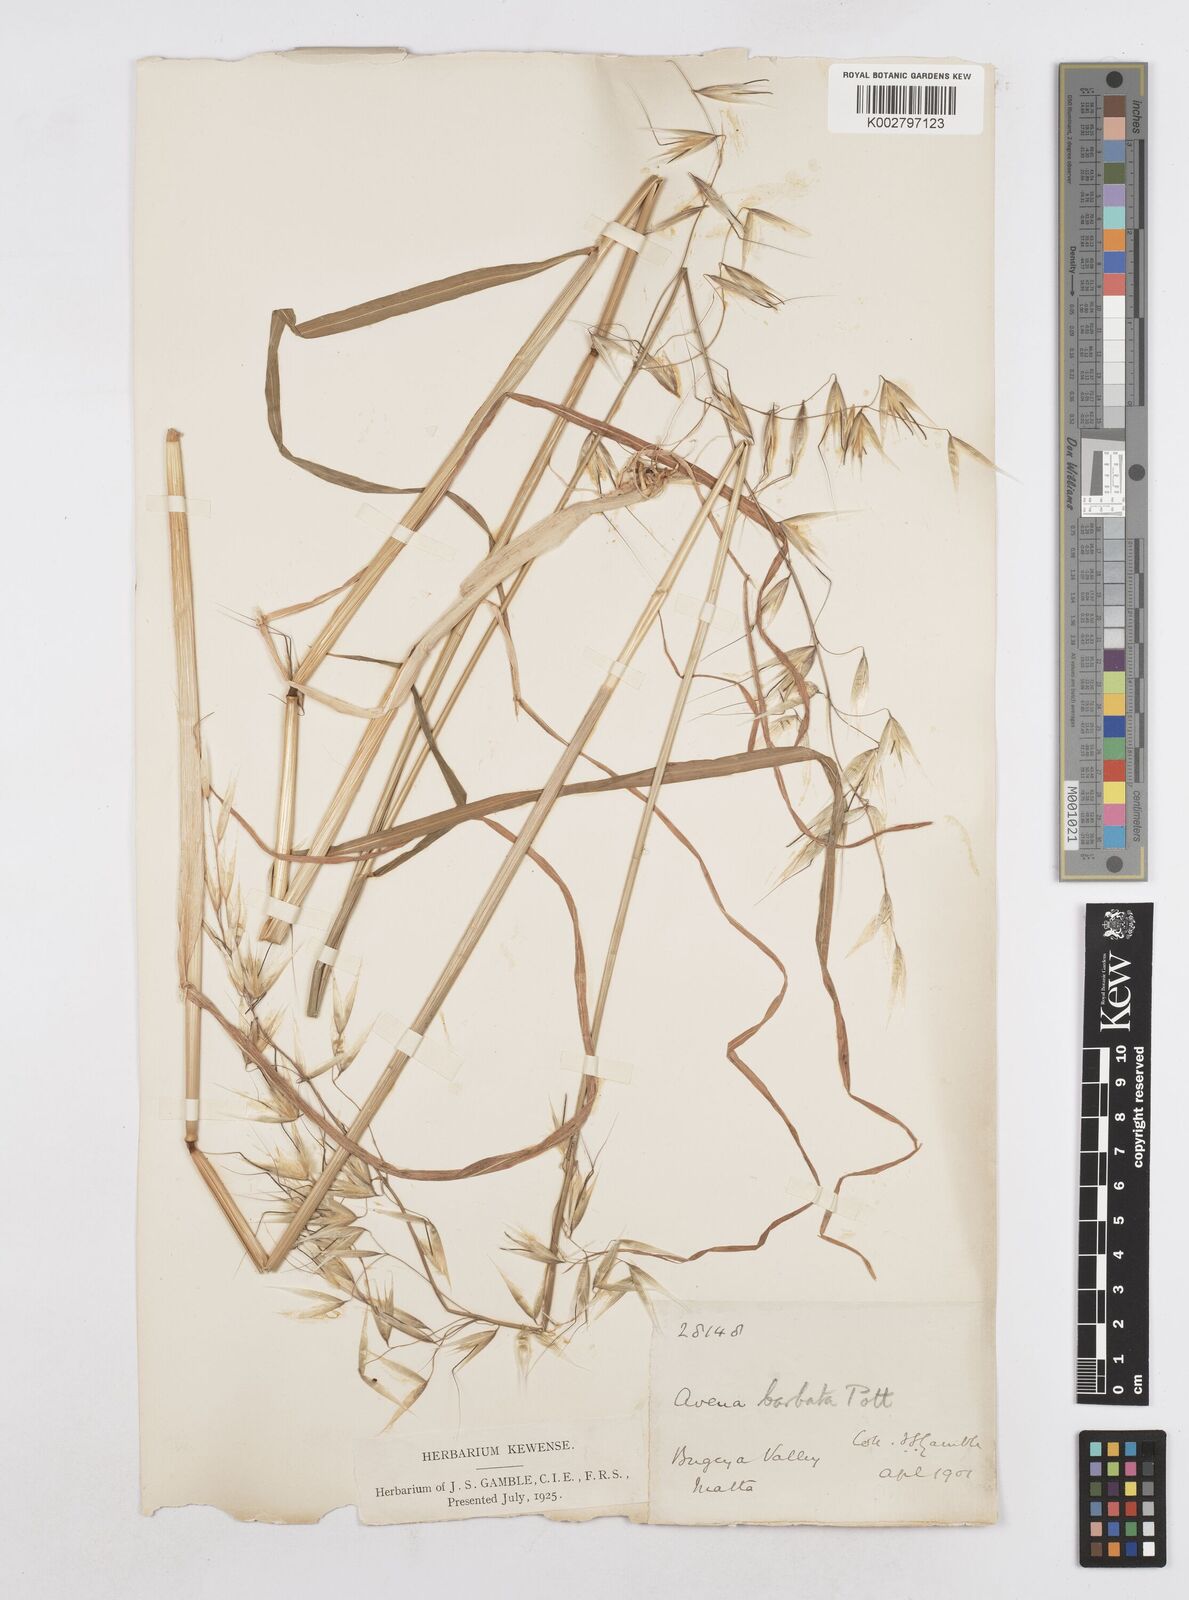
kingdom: Plantae
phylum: Tracheophyta
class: Liliopsida
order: Poales
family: Poaceae
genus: Avena
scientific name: Avena
